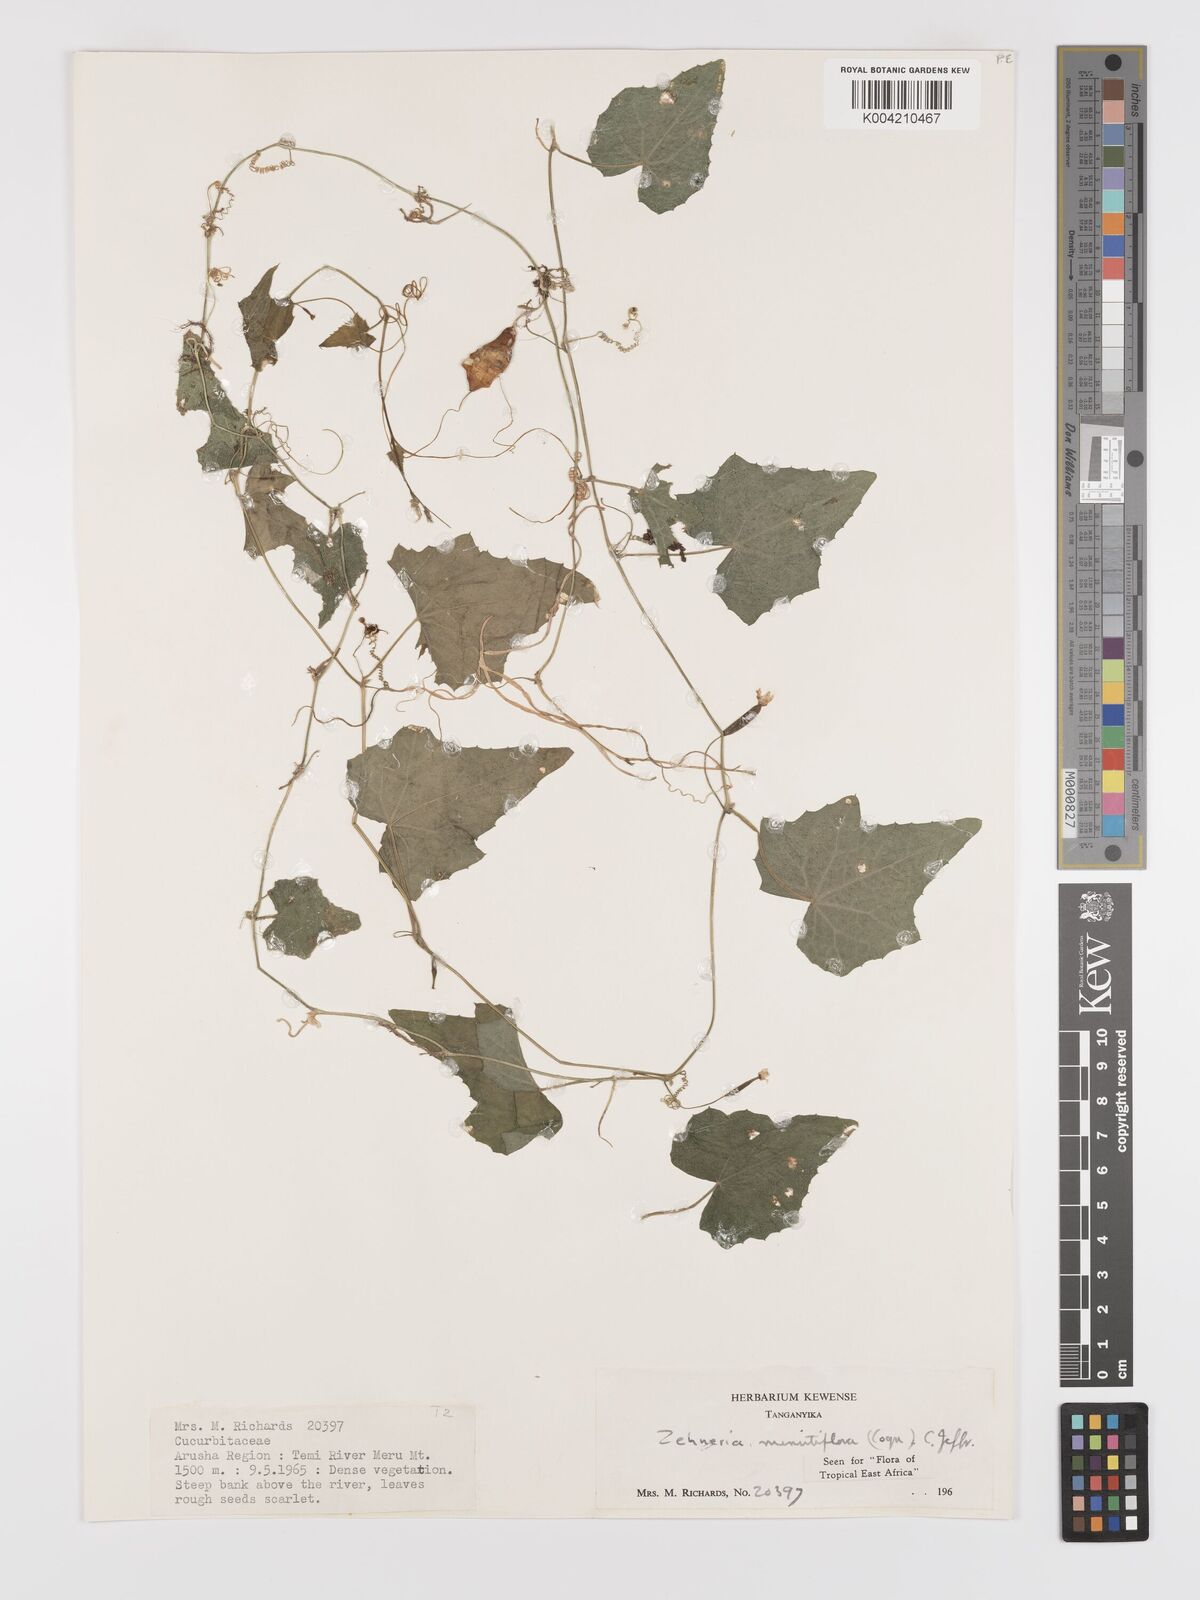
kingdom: Plantae
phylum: Tracheophyta
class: Magnoliopsida
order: Cucurbitales
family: Cucurbitaceae
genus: Zehneria
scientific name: Zehneria minutiflora
